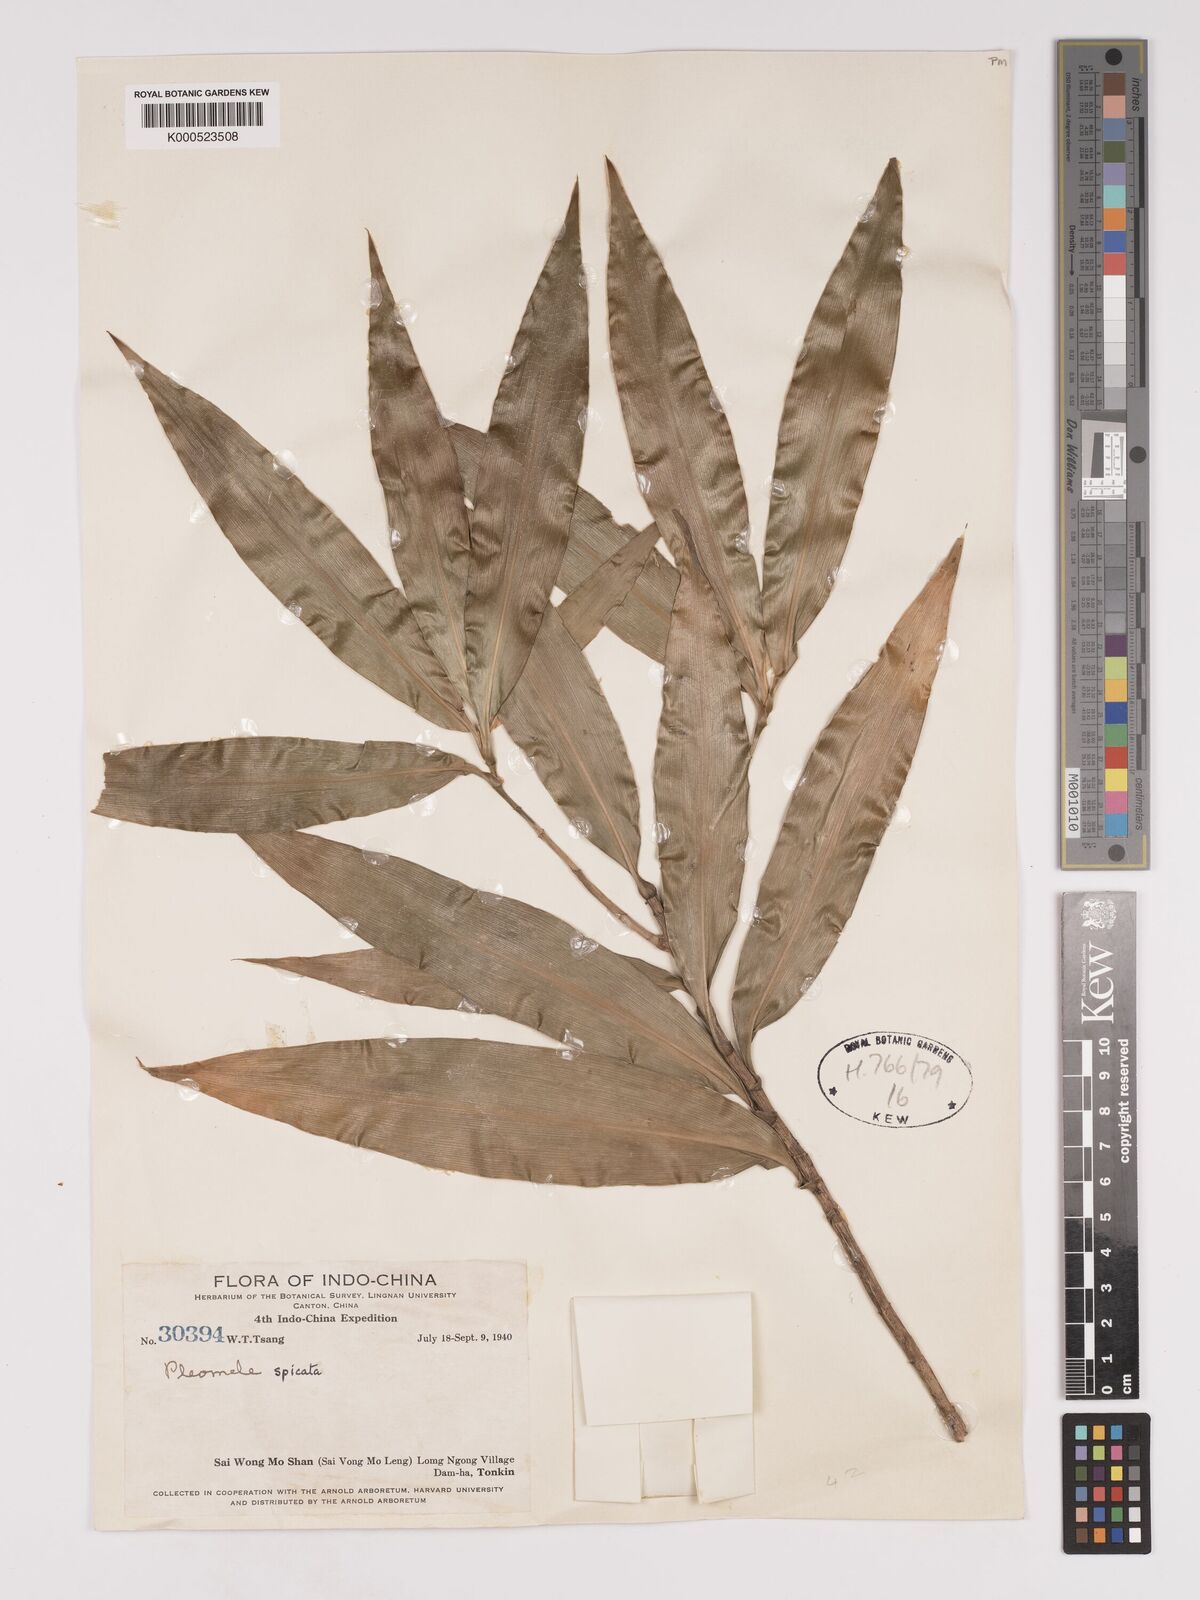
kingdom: Plantae
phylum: Tracheophyta
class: Liliopsida
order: Asparagales
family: Asparagaceae
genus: Dracaena
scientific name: Dracaena spicata
